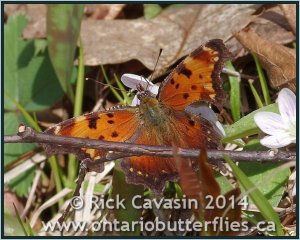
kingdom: Animalia
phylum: Arthropoda
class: Insecta
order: Lepidoptera
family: Nymphalidae
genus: Polygonia
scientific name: Polygonia progne
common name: Gray Comma
